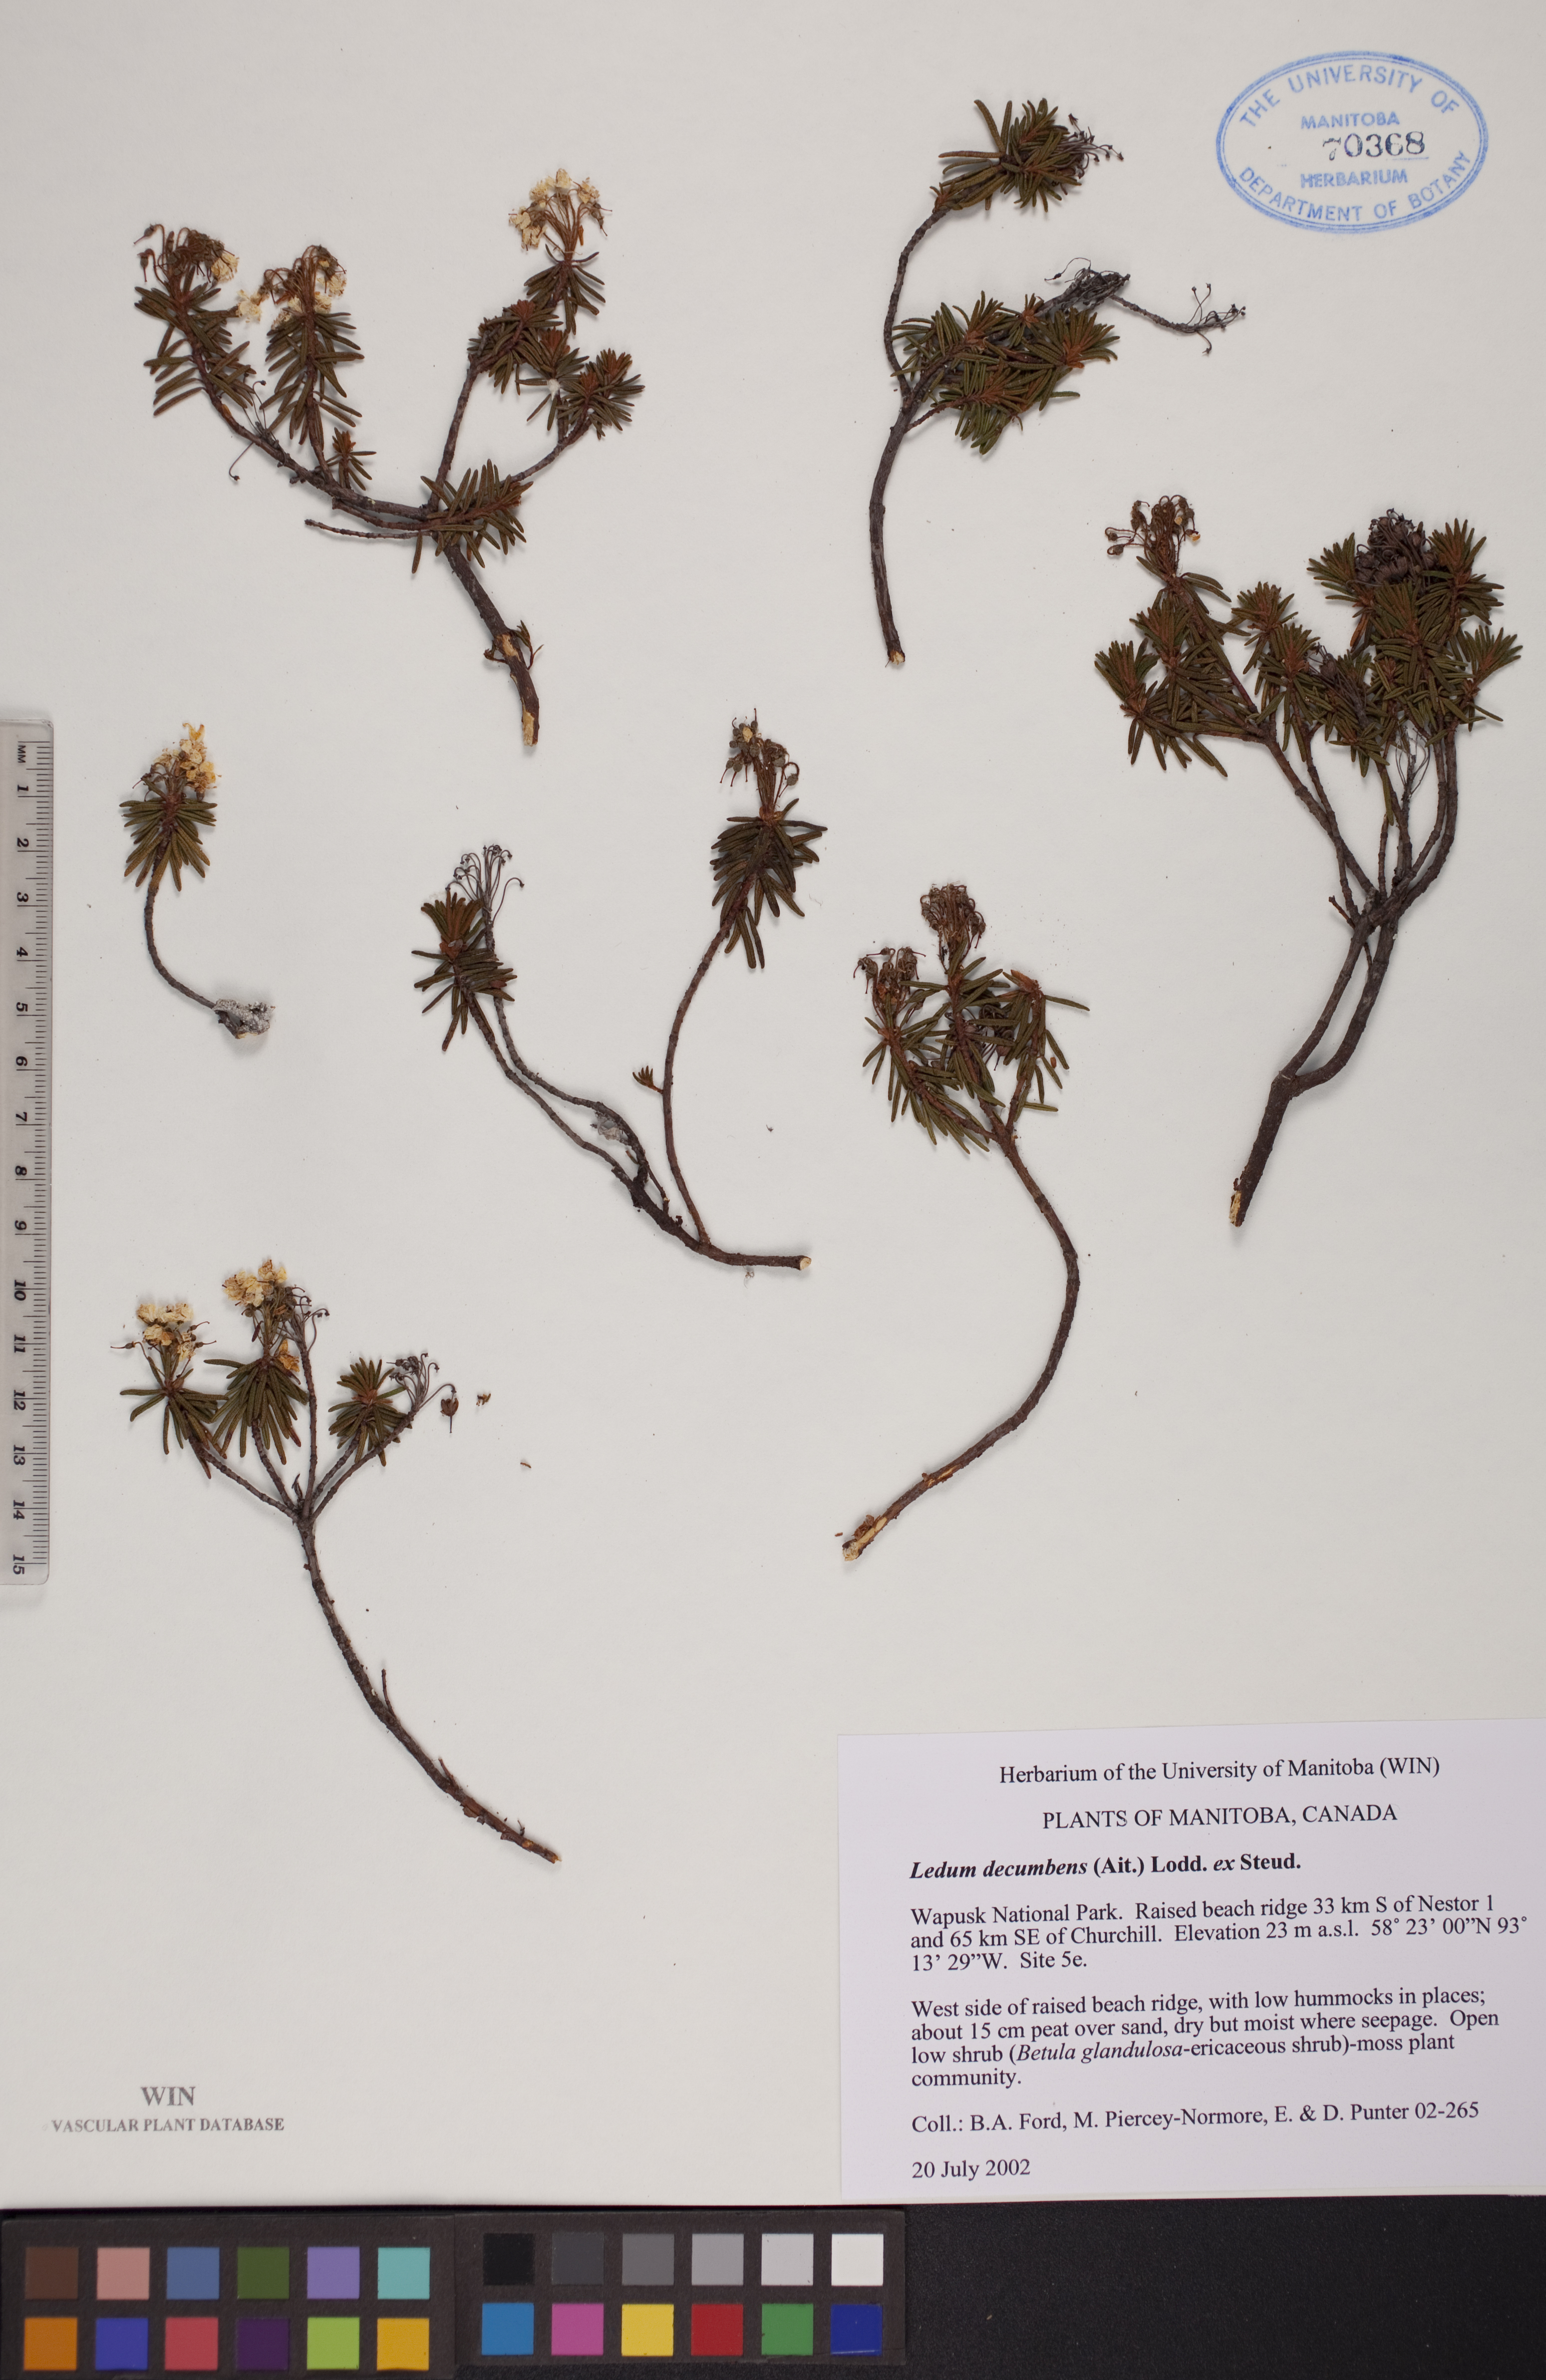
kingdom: Plantae
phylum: Tracheophyta
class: Magnoliopsida
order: Ericales
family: Ericaceae
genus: Rhododendron
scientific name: Rhododendron tomentosum
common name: Marsh labrador tea
